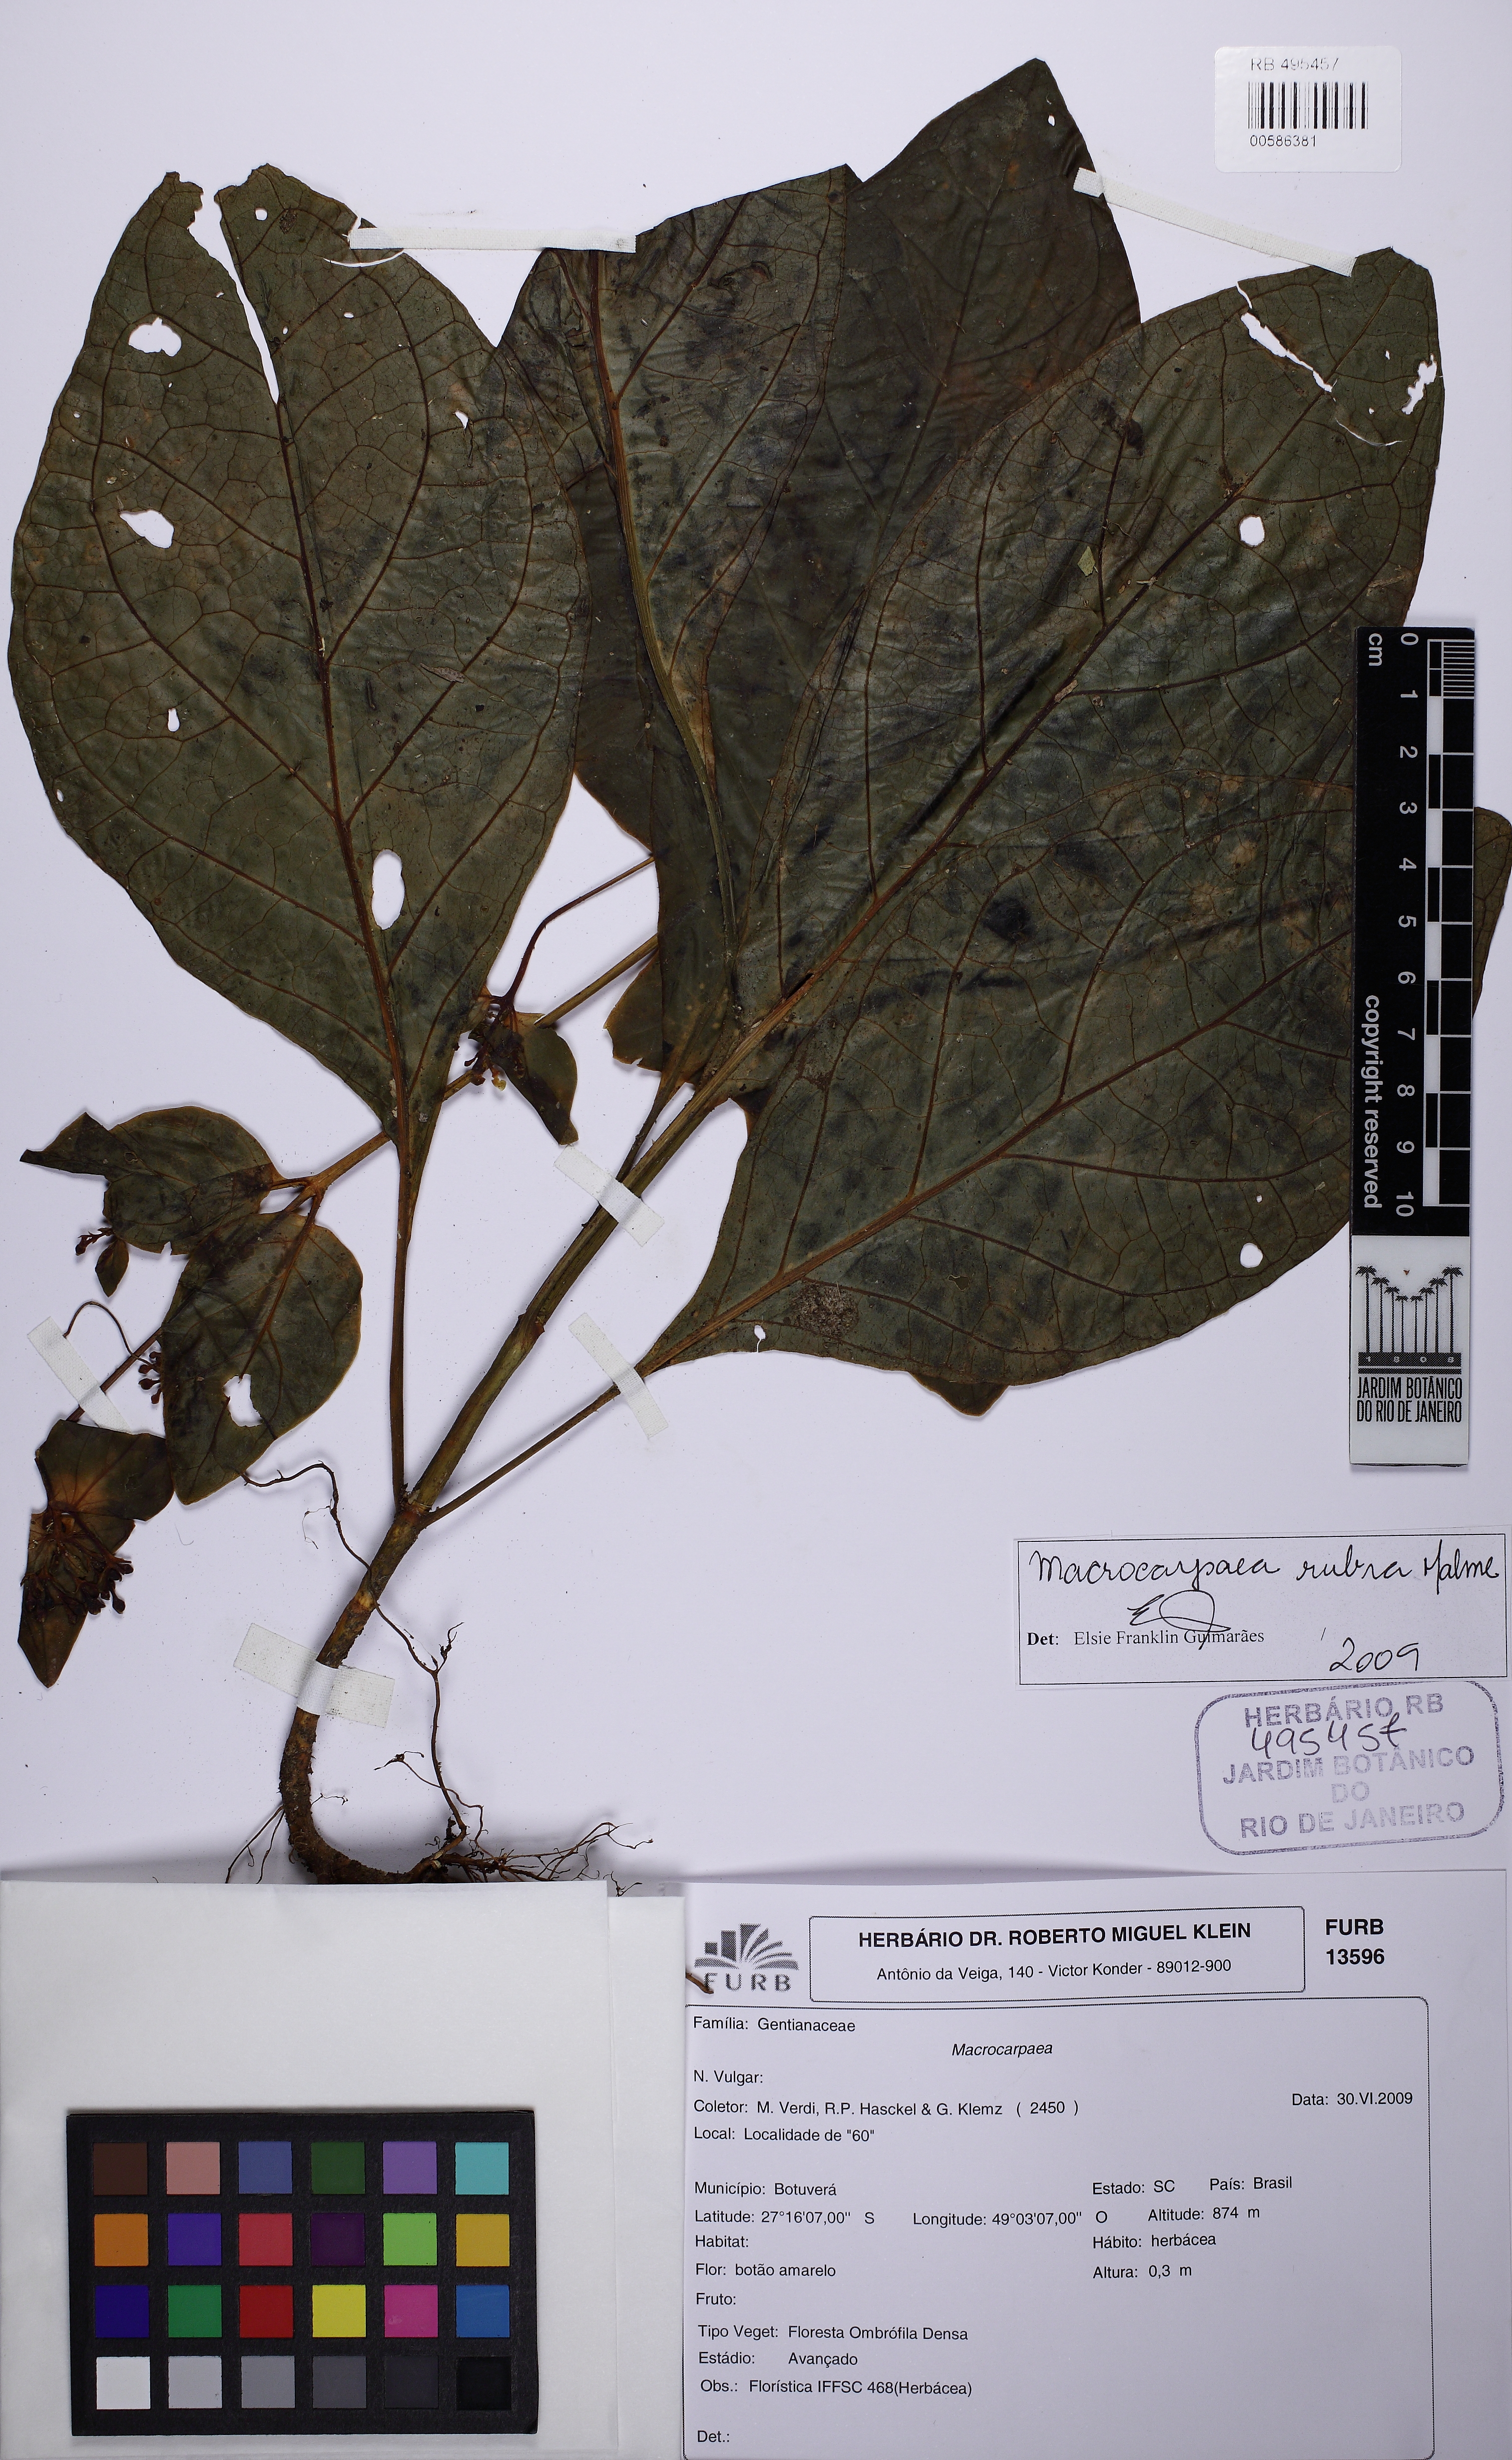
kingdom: Plantae
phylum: Tracheophyta
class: Magnoliopsida
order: Gentianales
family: Gentianaceae
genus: Macrocarpaea
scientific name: Macrocarpaea rubra
